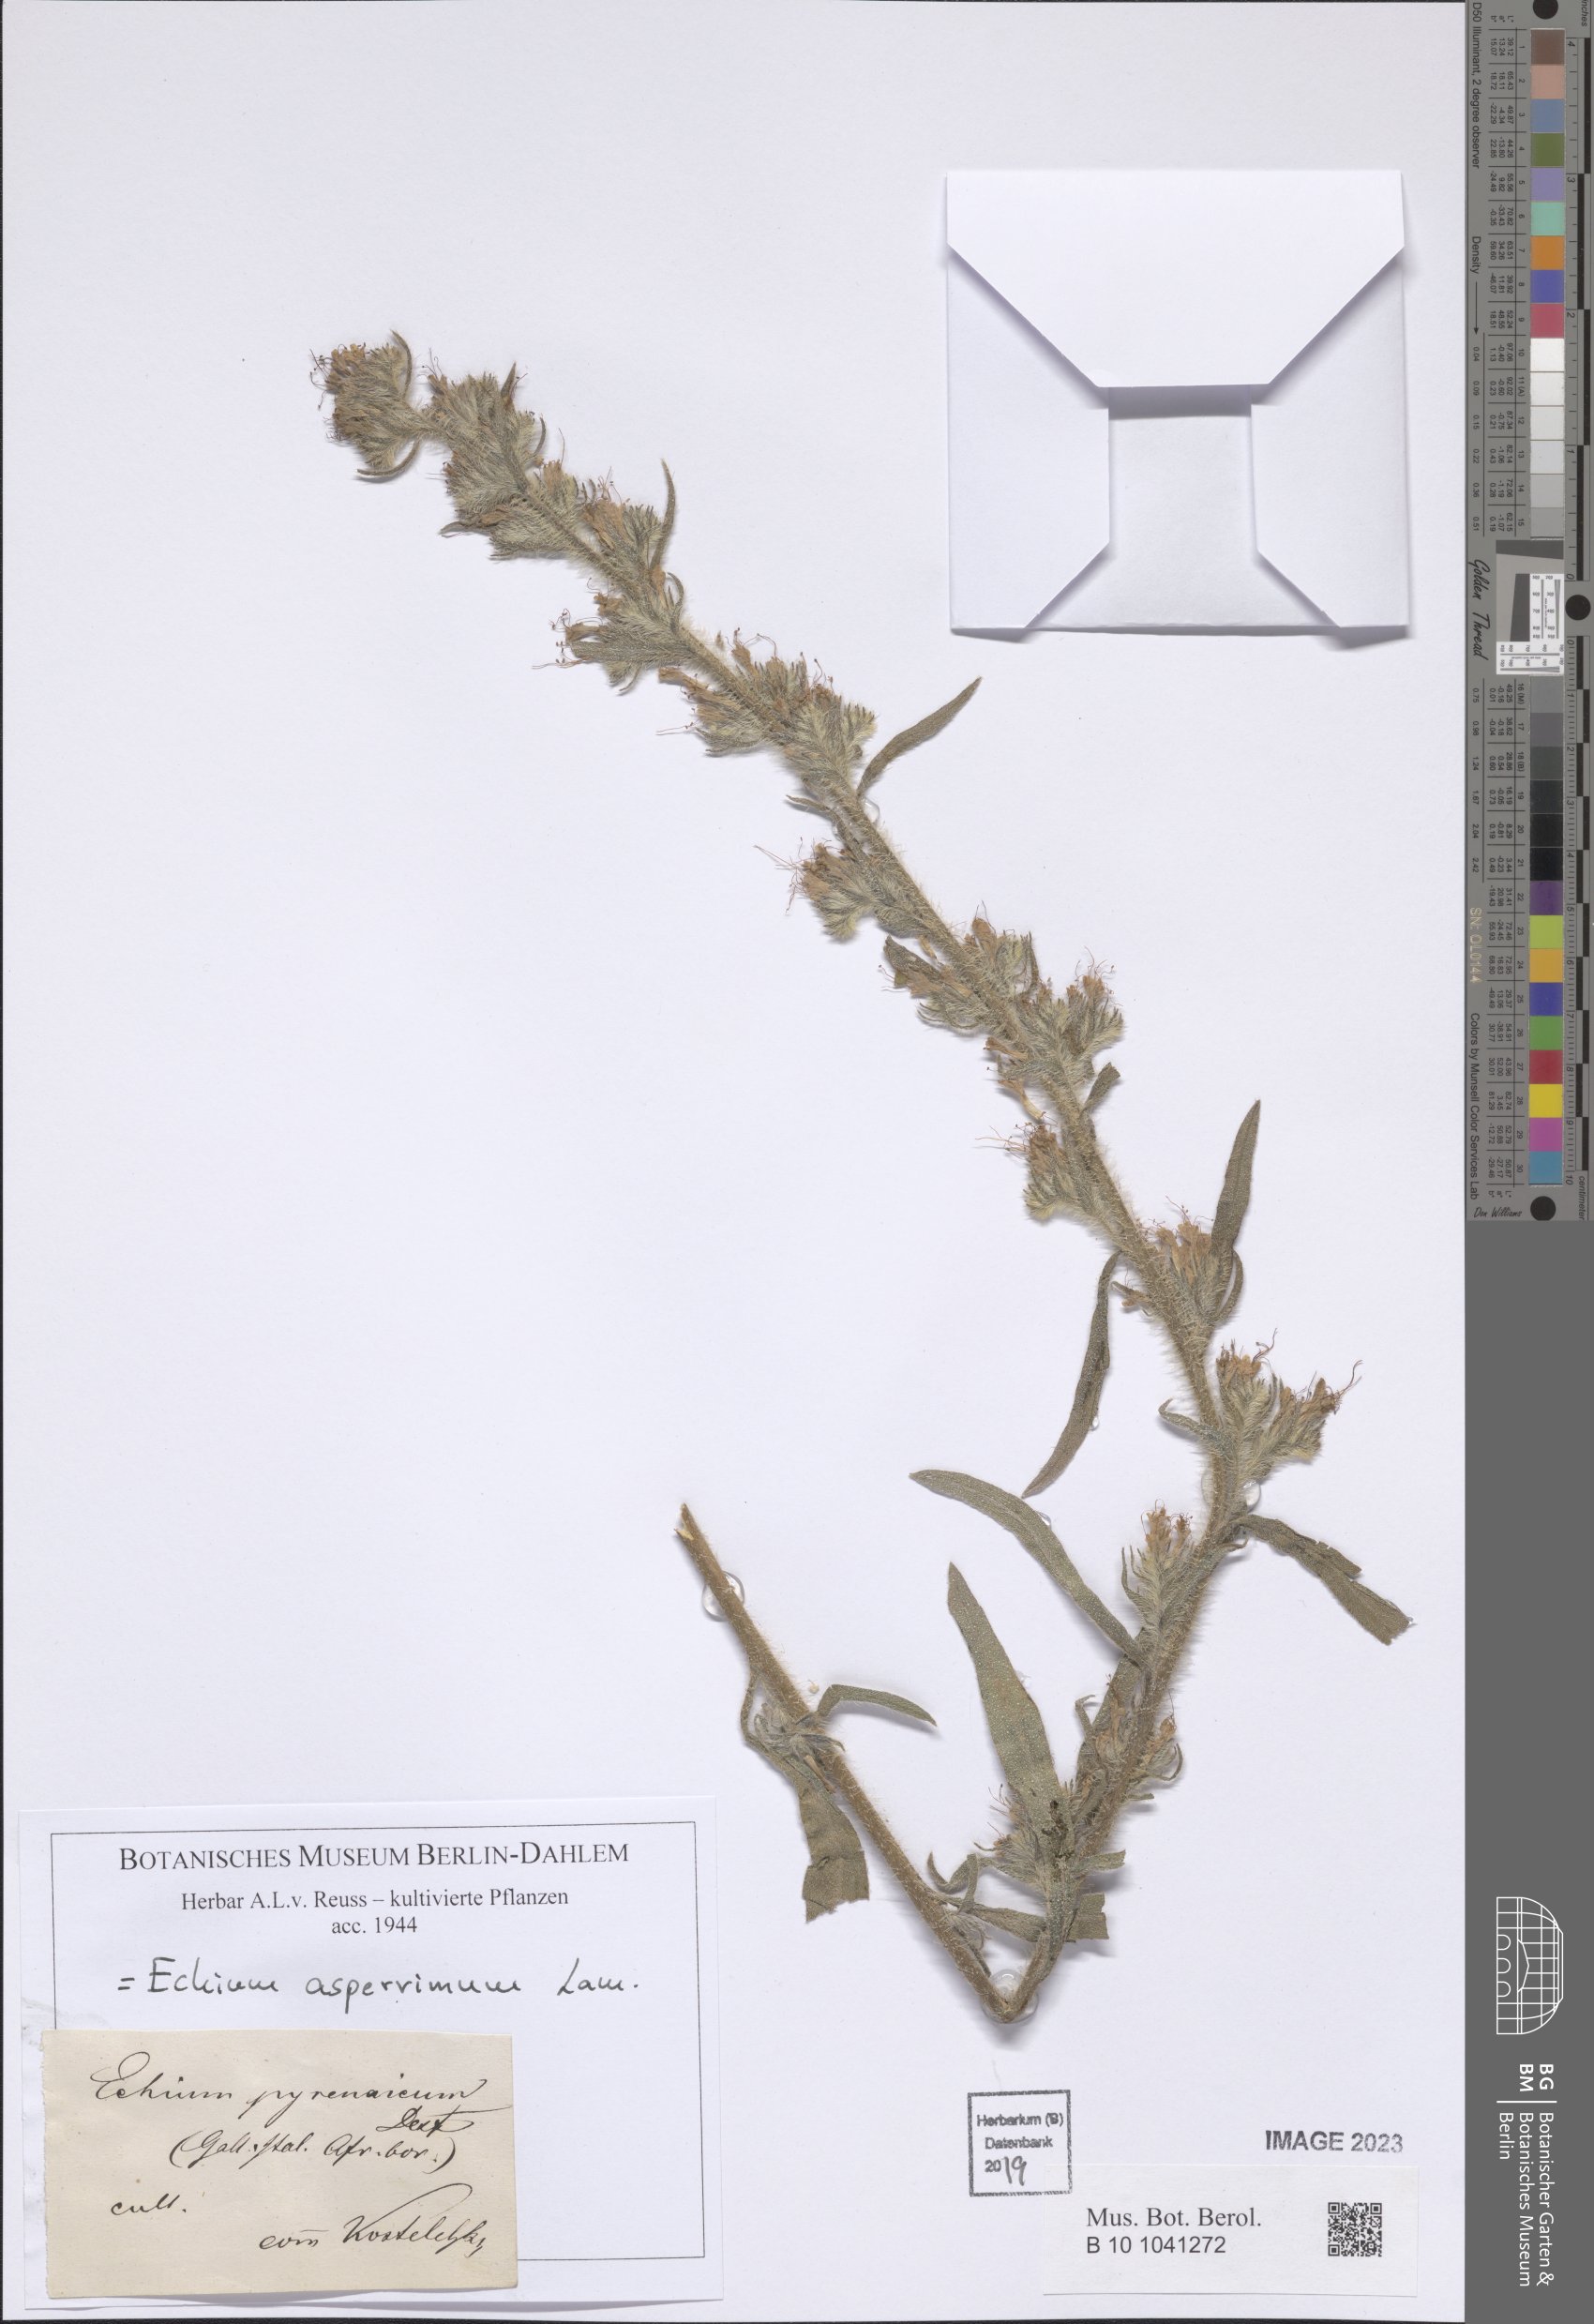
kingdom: Plantae
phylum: Tracheophyta
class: Magnoliopsida
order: Boraginales
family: Boraginaceae
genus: Echium
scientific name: Echium asperrimum
